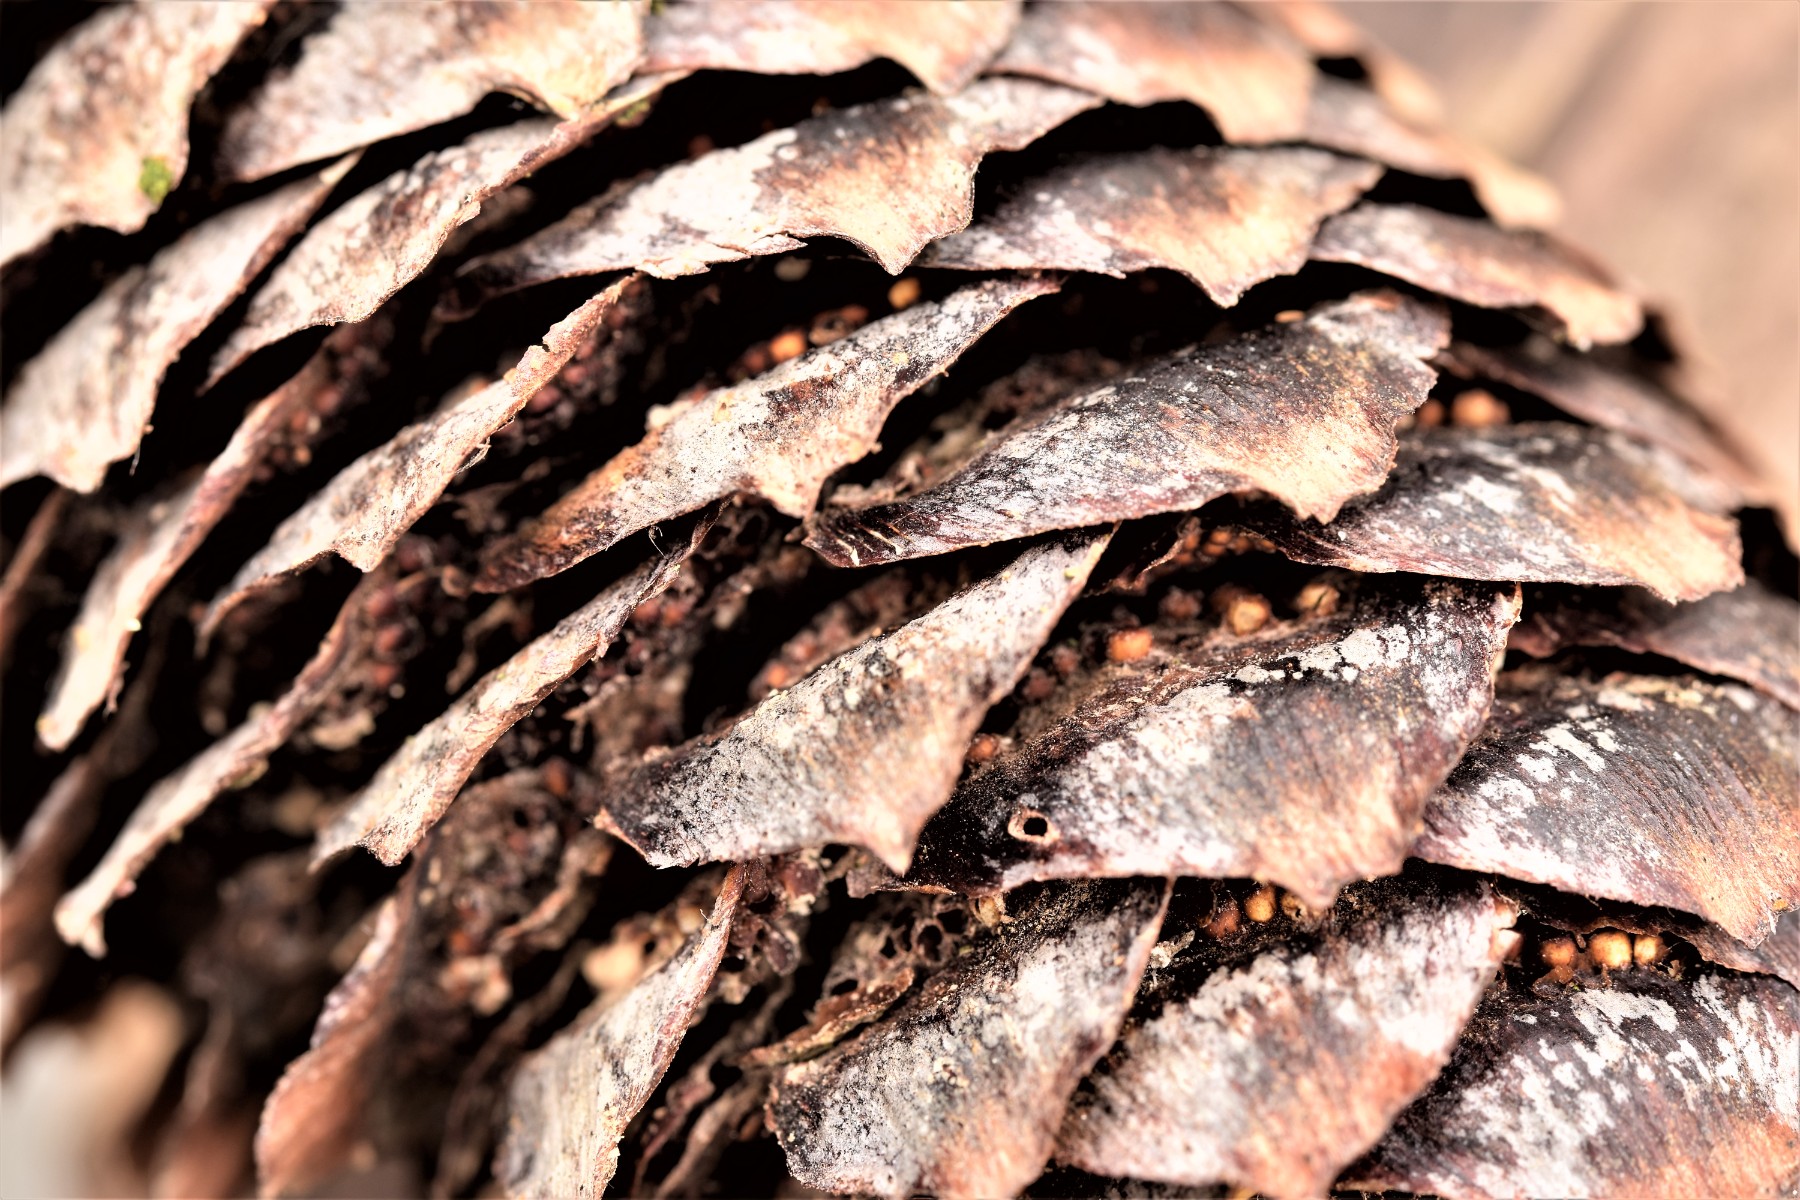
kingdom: Fungi
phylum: Basidiomycota
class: Pucciniomycetes
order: Pucciniales
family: Pucciniastraceae
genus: Thekopsora
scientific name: Thekopsora areolata
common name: grankogle-nålerust
